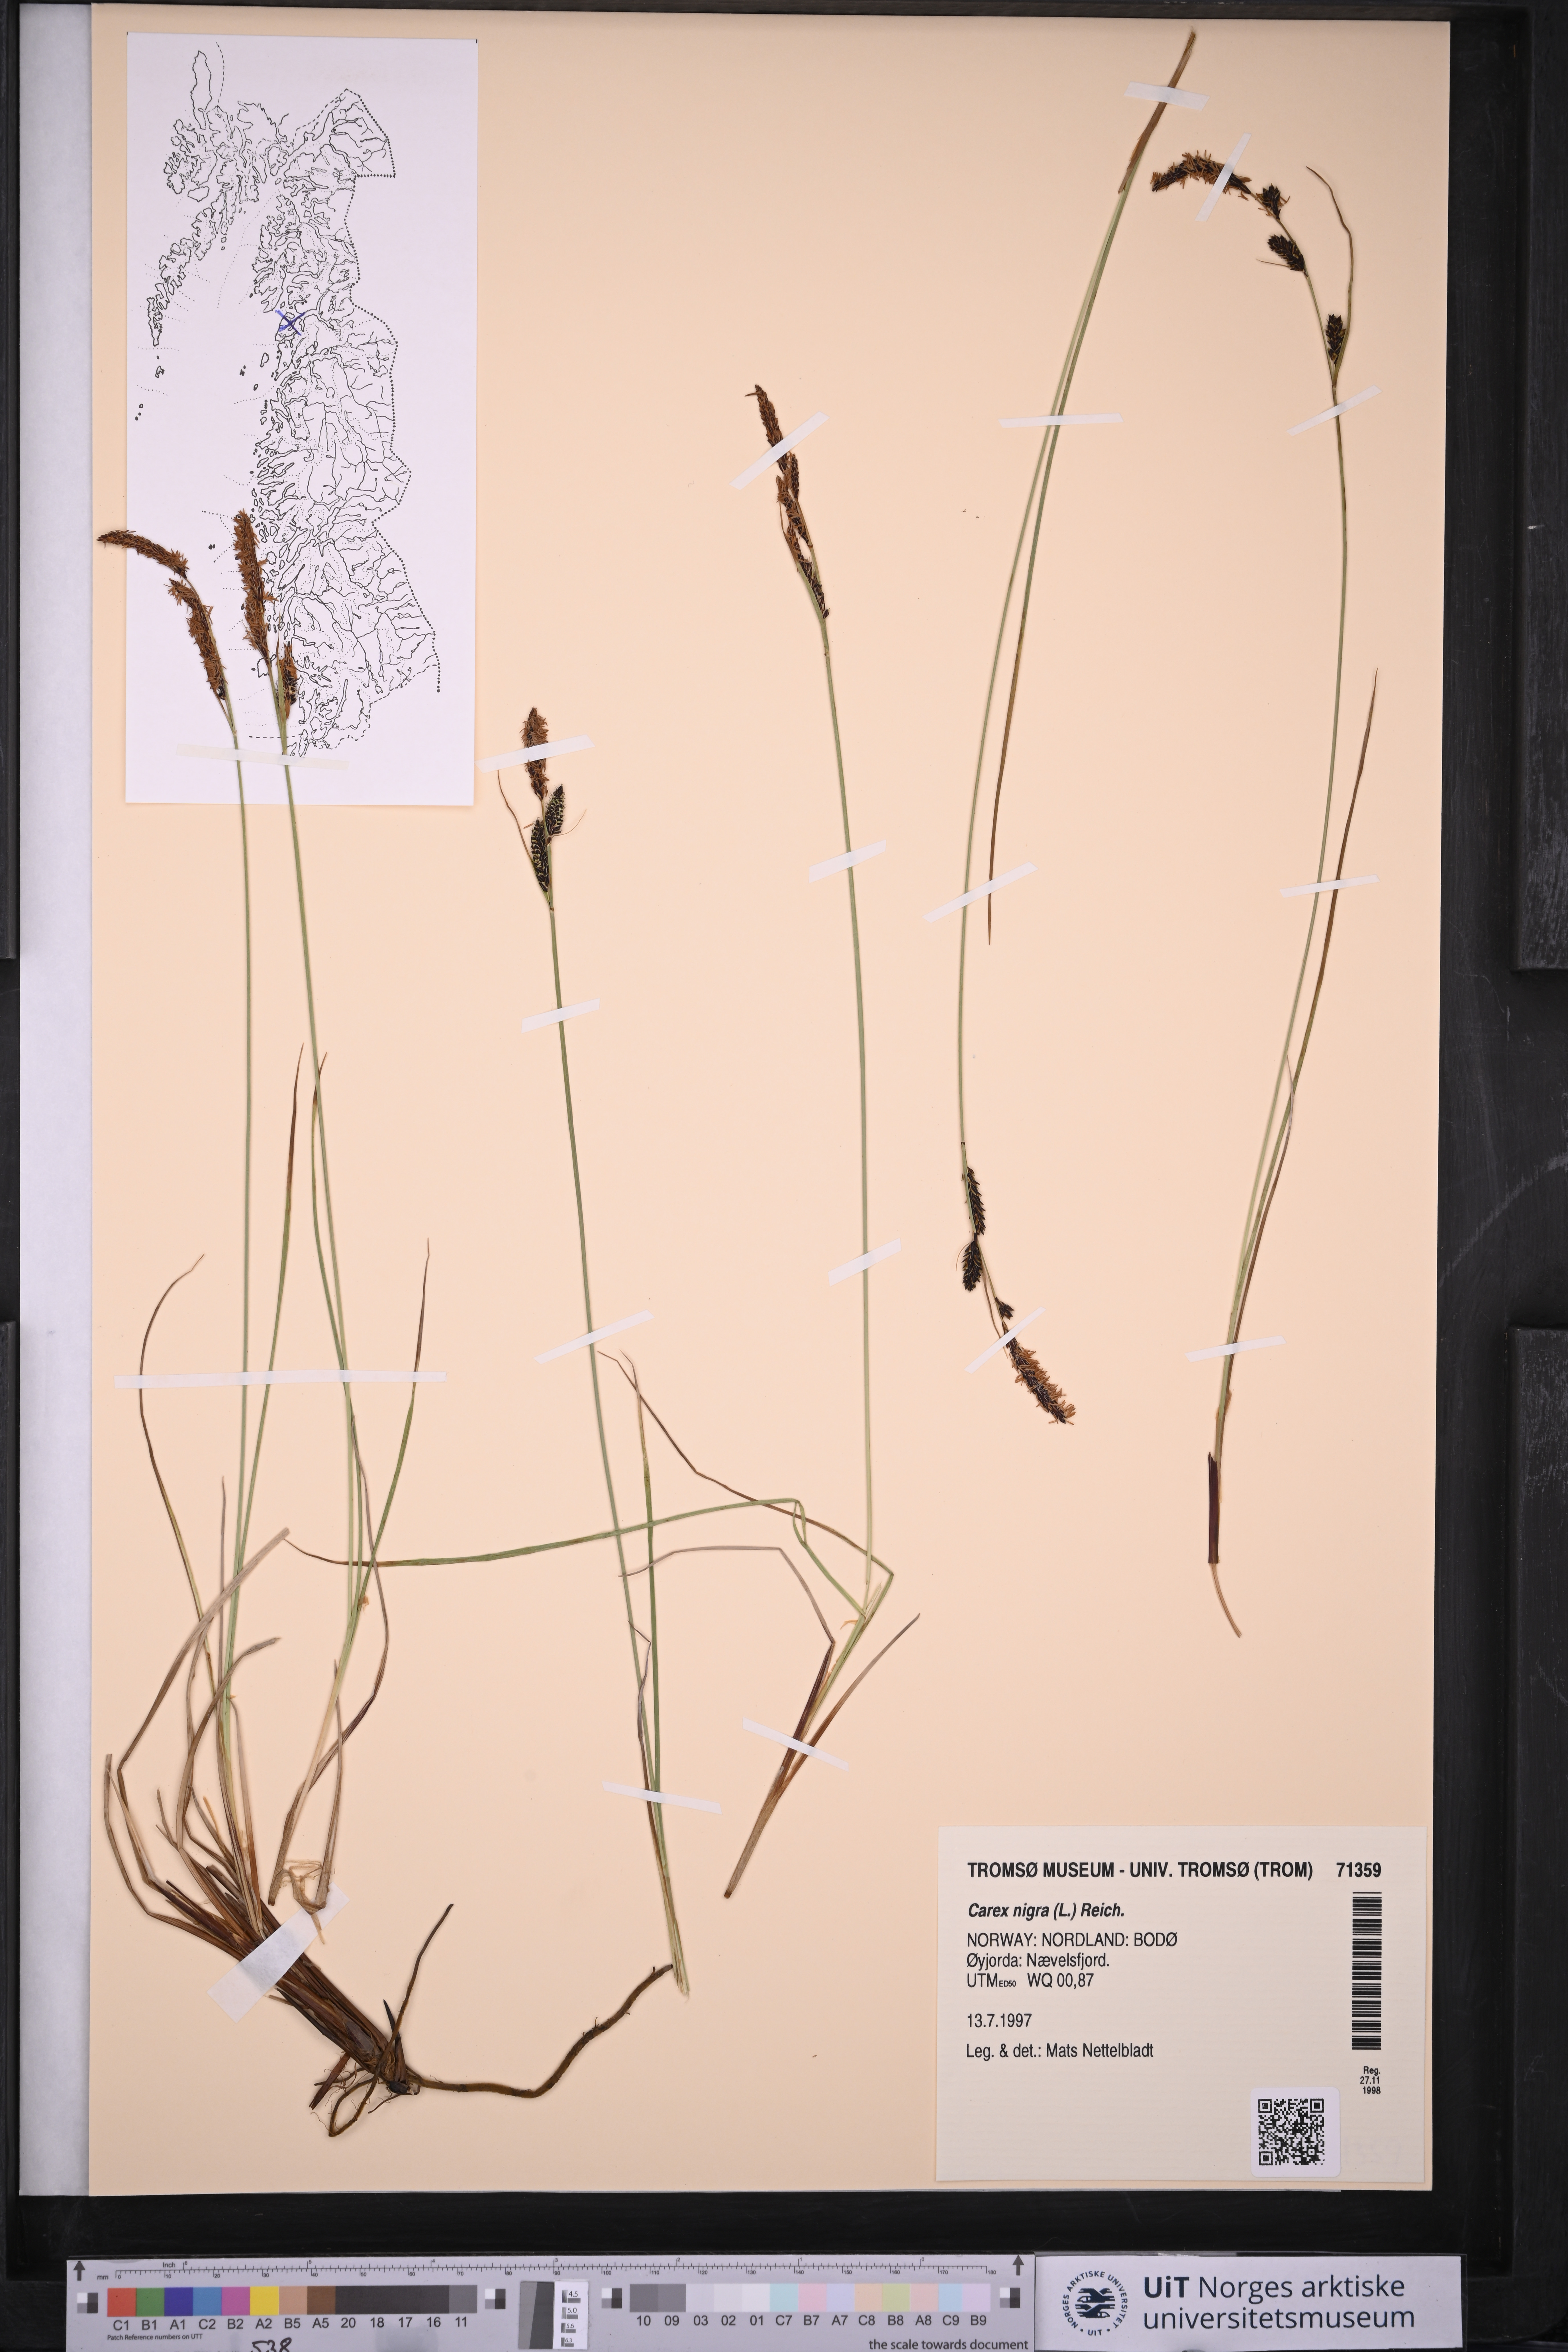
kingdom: Plantae
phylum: Tracheophyta
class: Liliopsida
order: Poales
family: Cyperaceae
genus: Carex
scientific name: Carex nigra
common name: Common sedge
